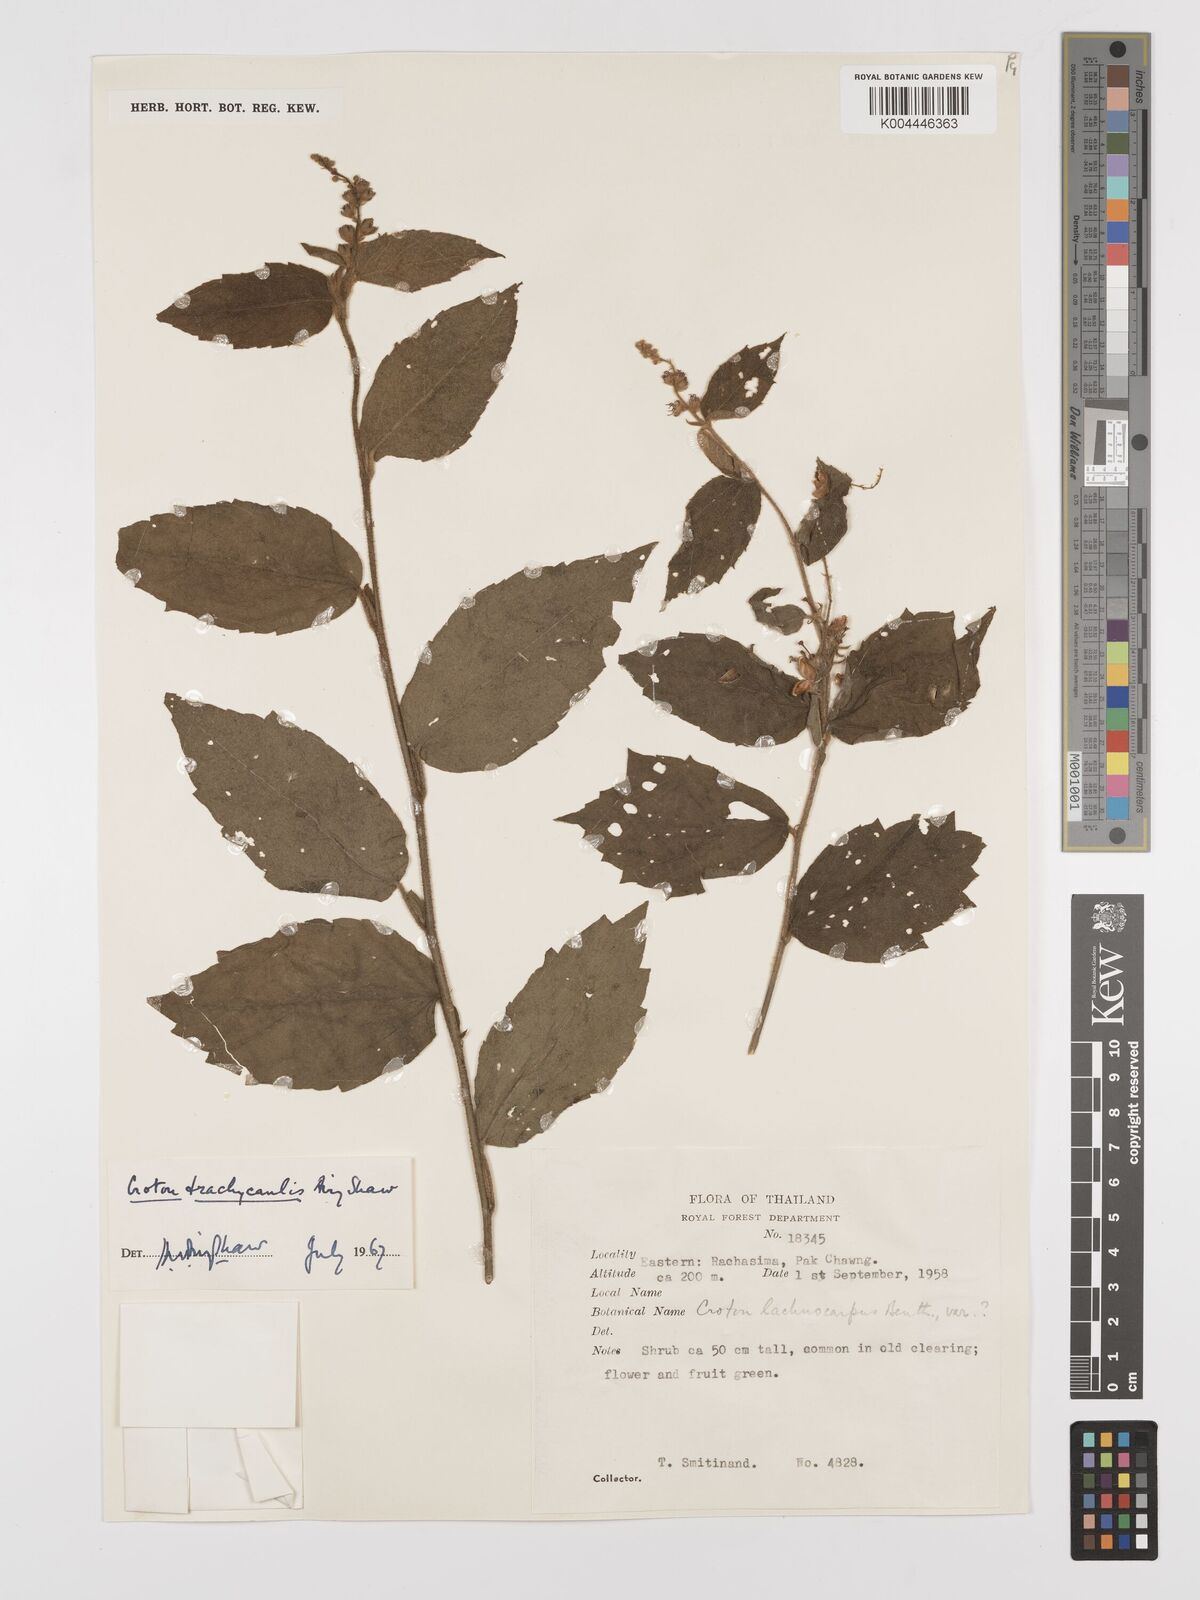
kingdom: Plantae
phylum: Tracheophyta
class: Magnoliopsida
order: Malpighiales
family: Euphorbiaceae
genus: Croton
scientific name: Croton lachnocarpus
